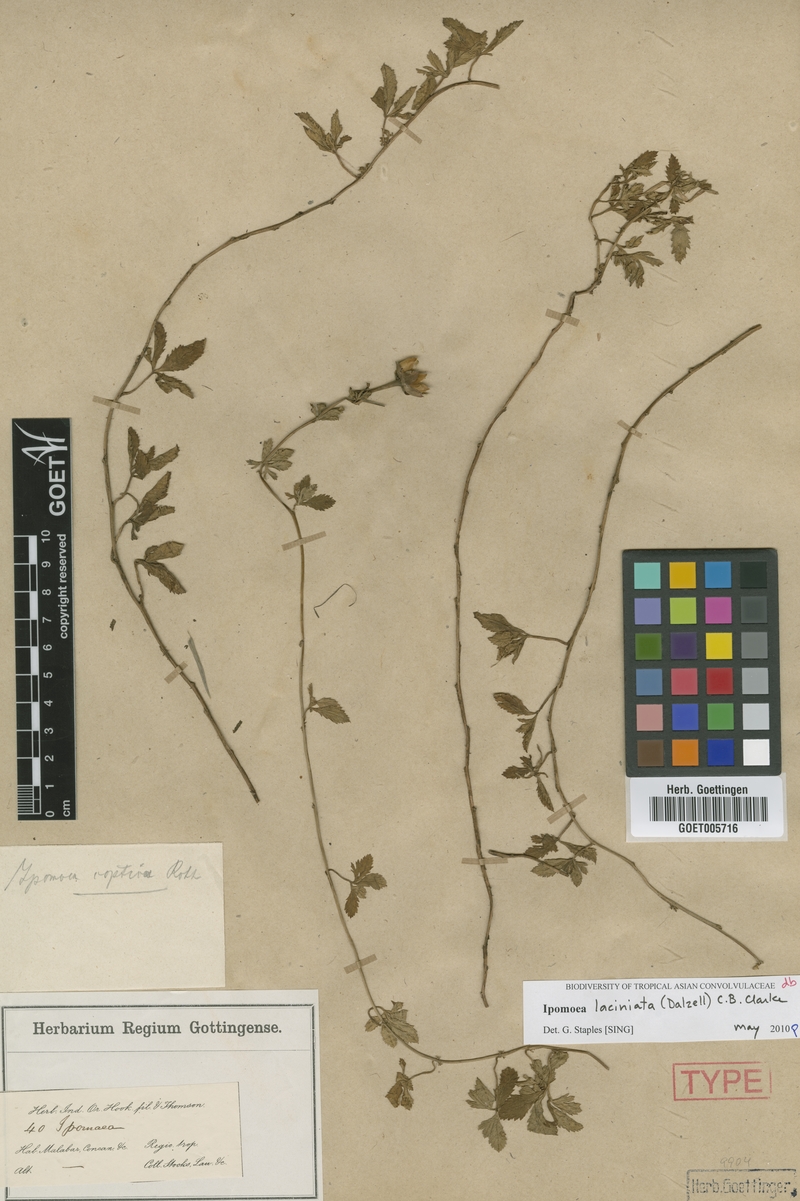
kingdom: Plantae
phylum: Tracheophyta
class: Magnoliopsida
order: Solanales
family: Convolvulaceae
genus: Ipomoea
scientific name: Ipomoea diversifolia
